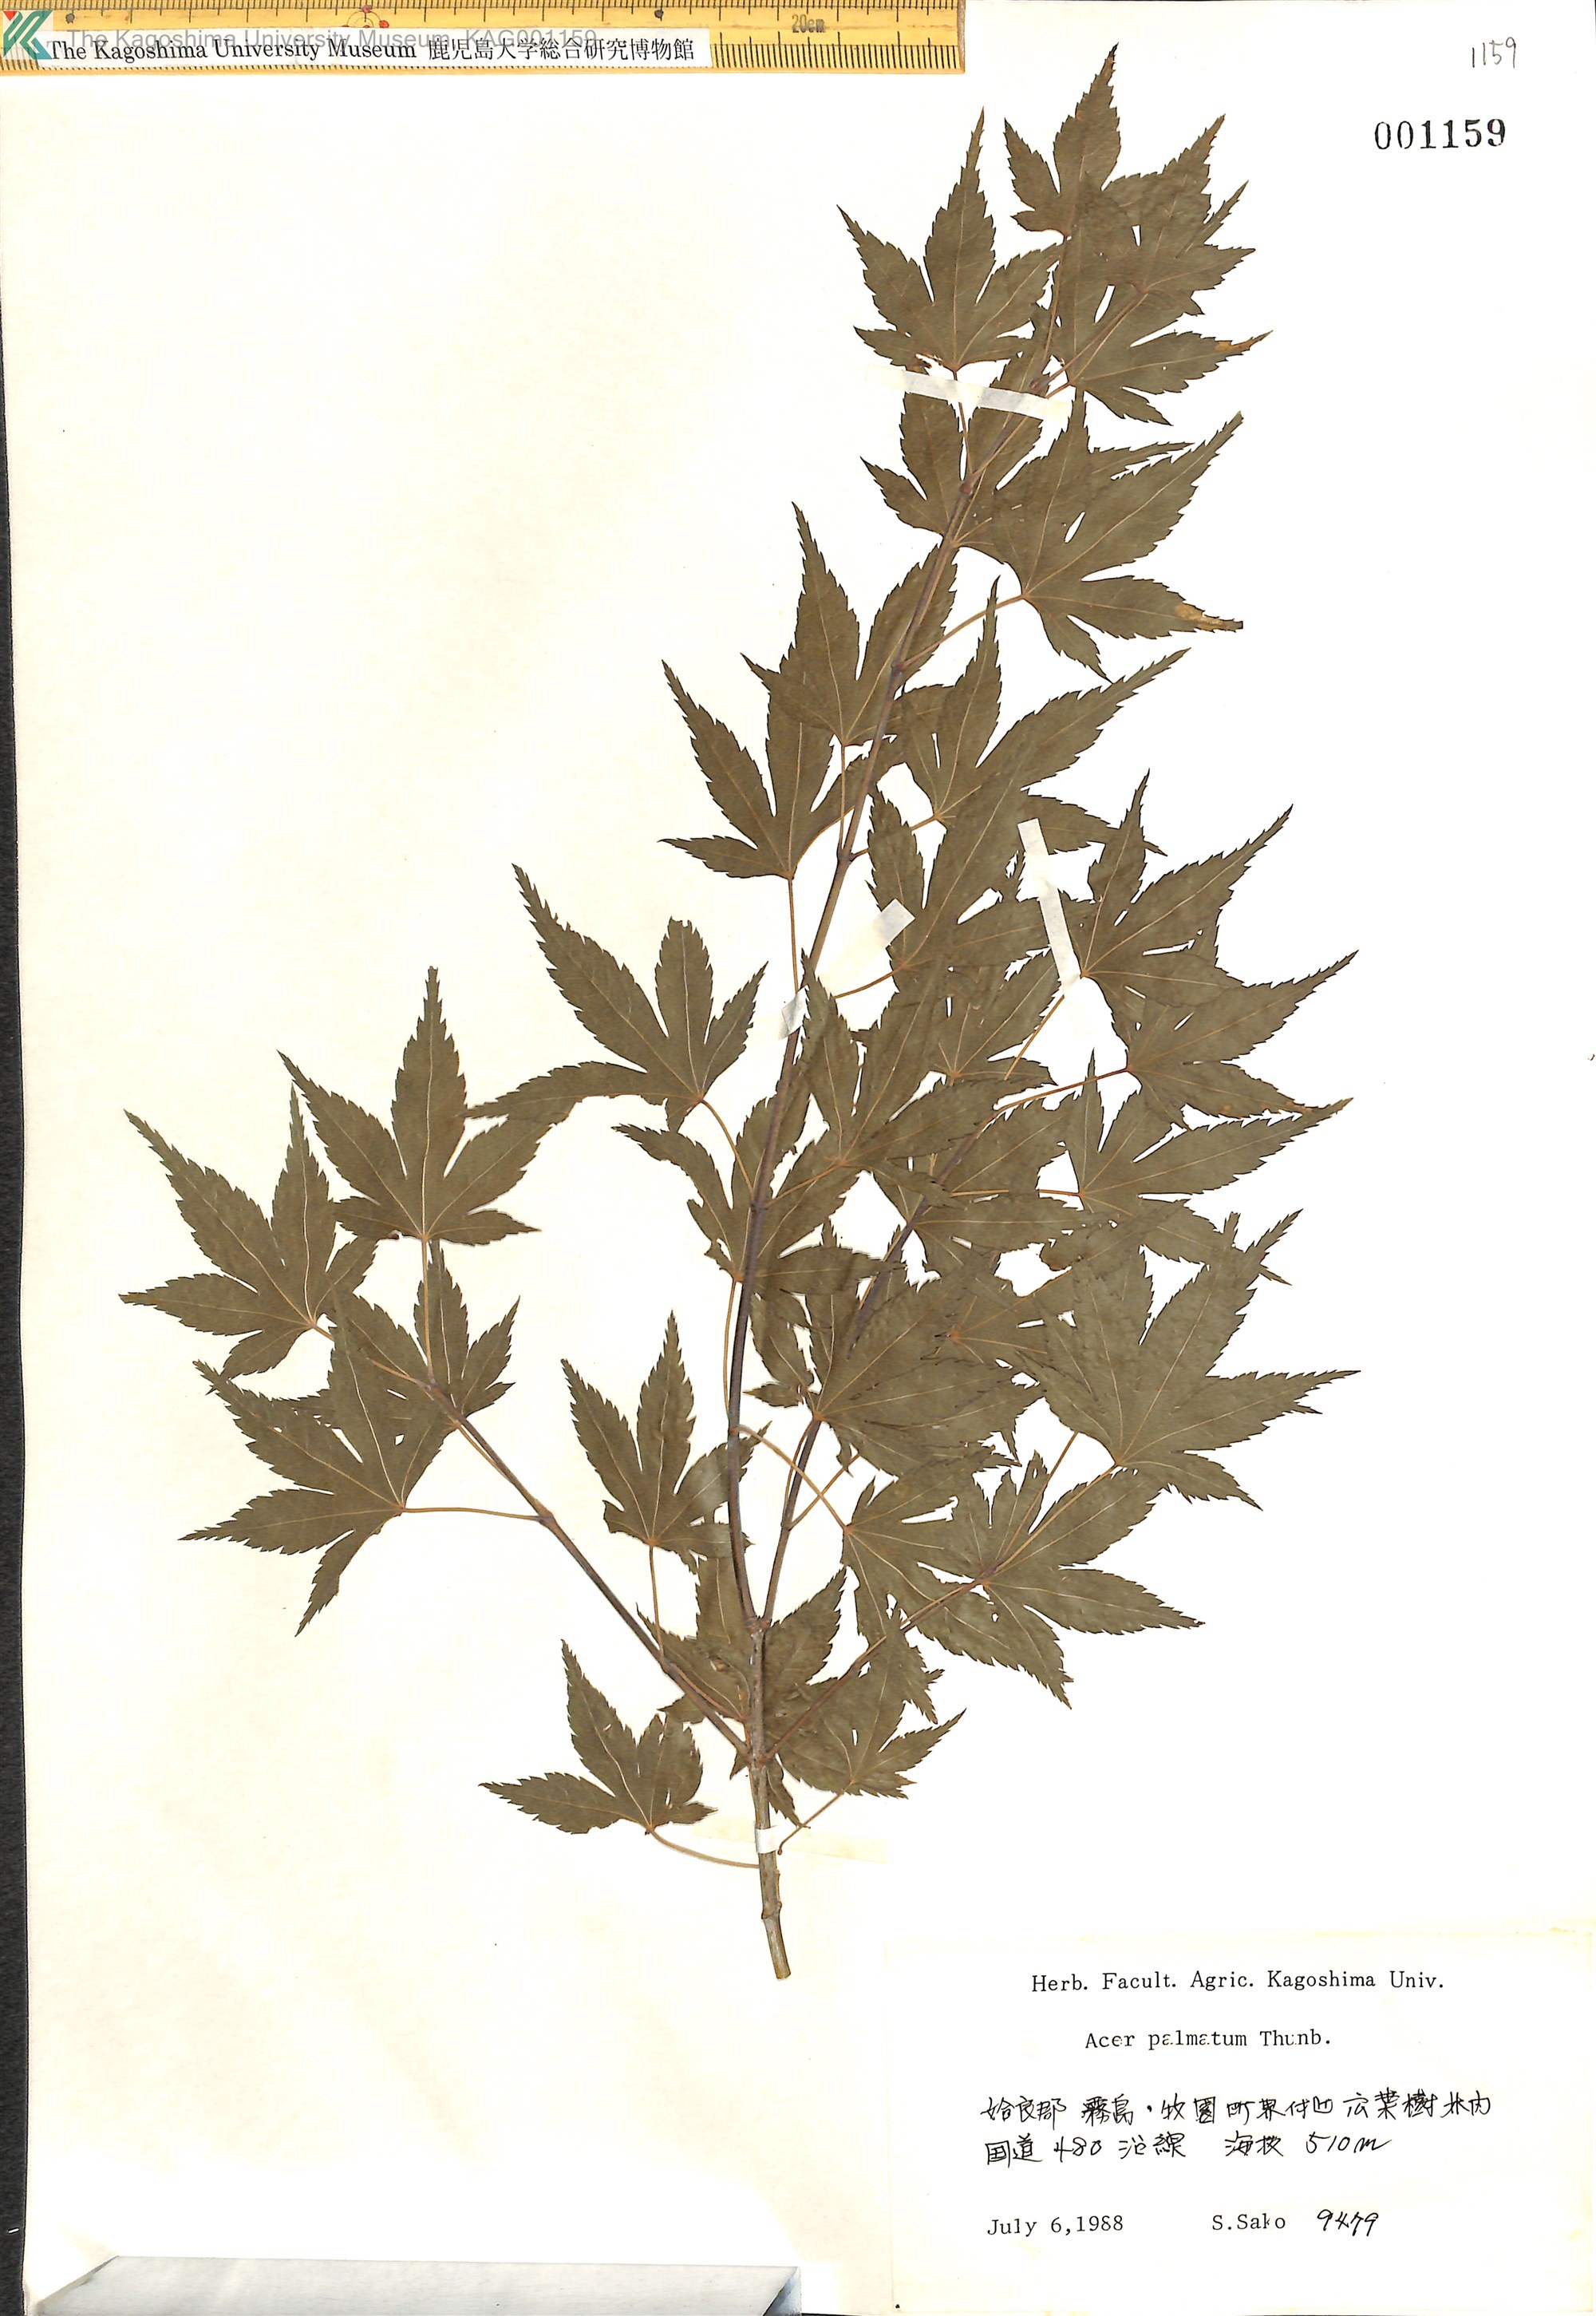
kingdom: Plantae
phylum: Tracheophyta
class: Magnoliopsida
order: Sapindales
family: Sapindaceae
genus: Acer
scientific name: Acer palmatum
